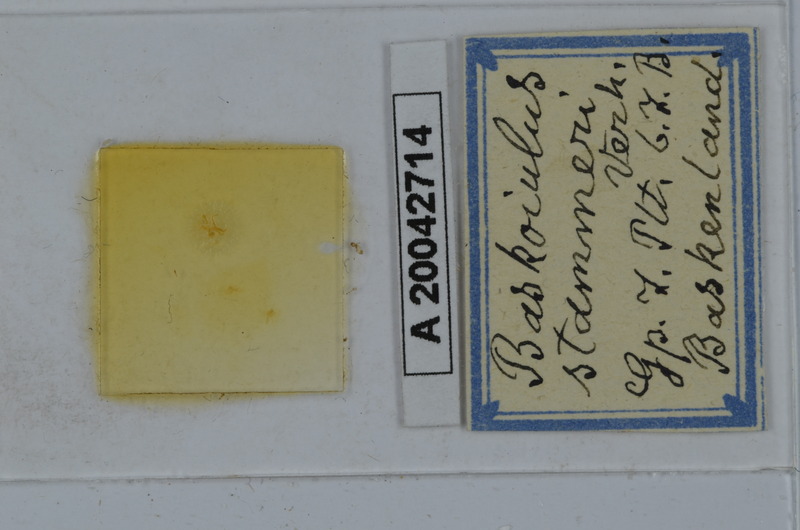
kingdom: Animalia
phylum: Arthropoda
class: Diplopoda
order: Julida
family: Julidae
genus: Mesoiulus
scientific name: Mesoiulus stammeri
